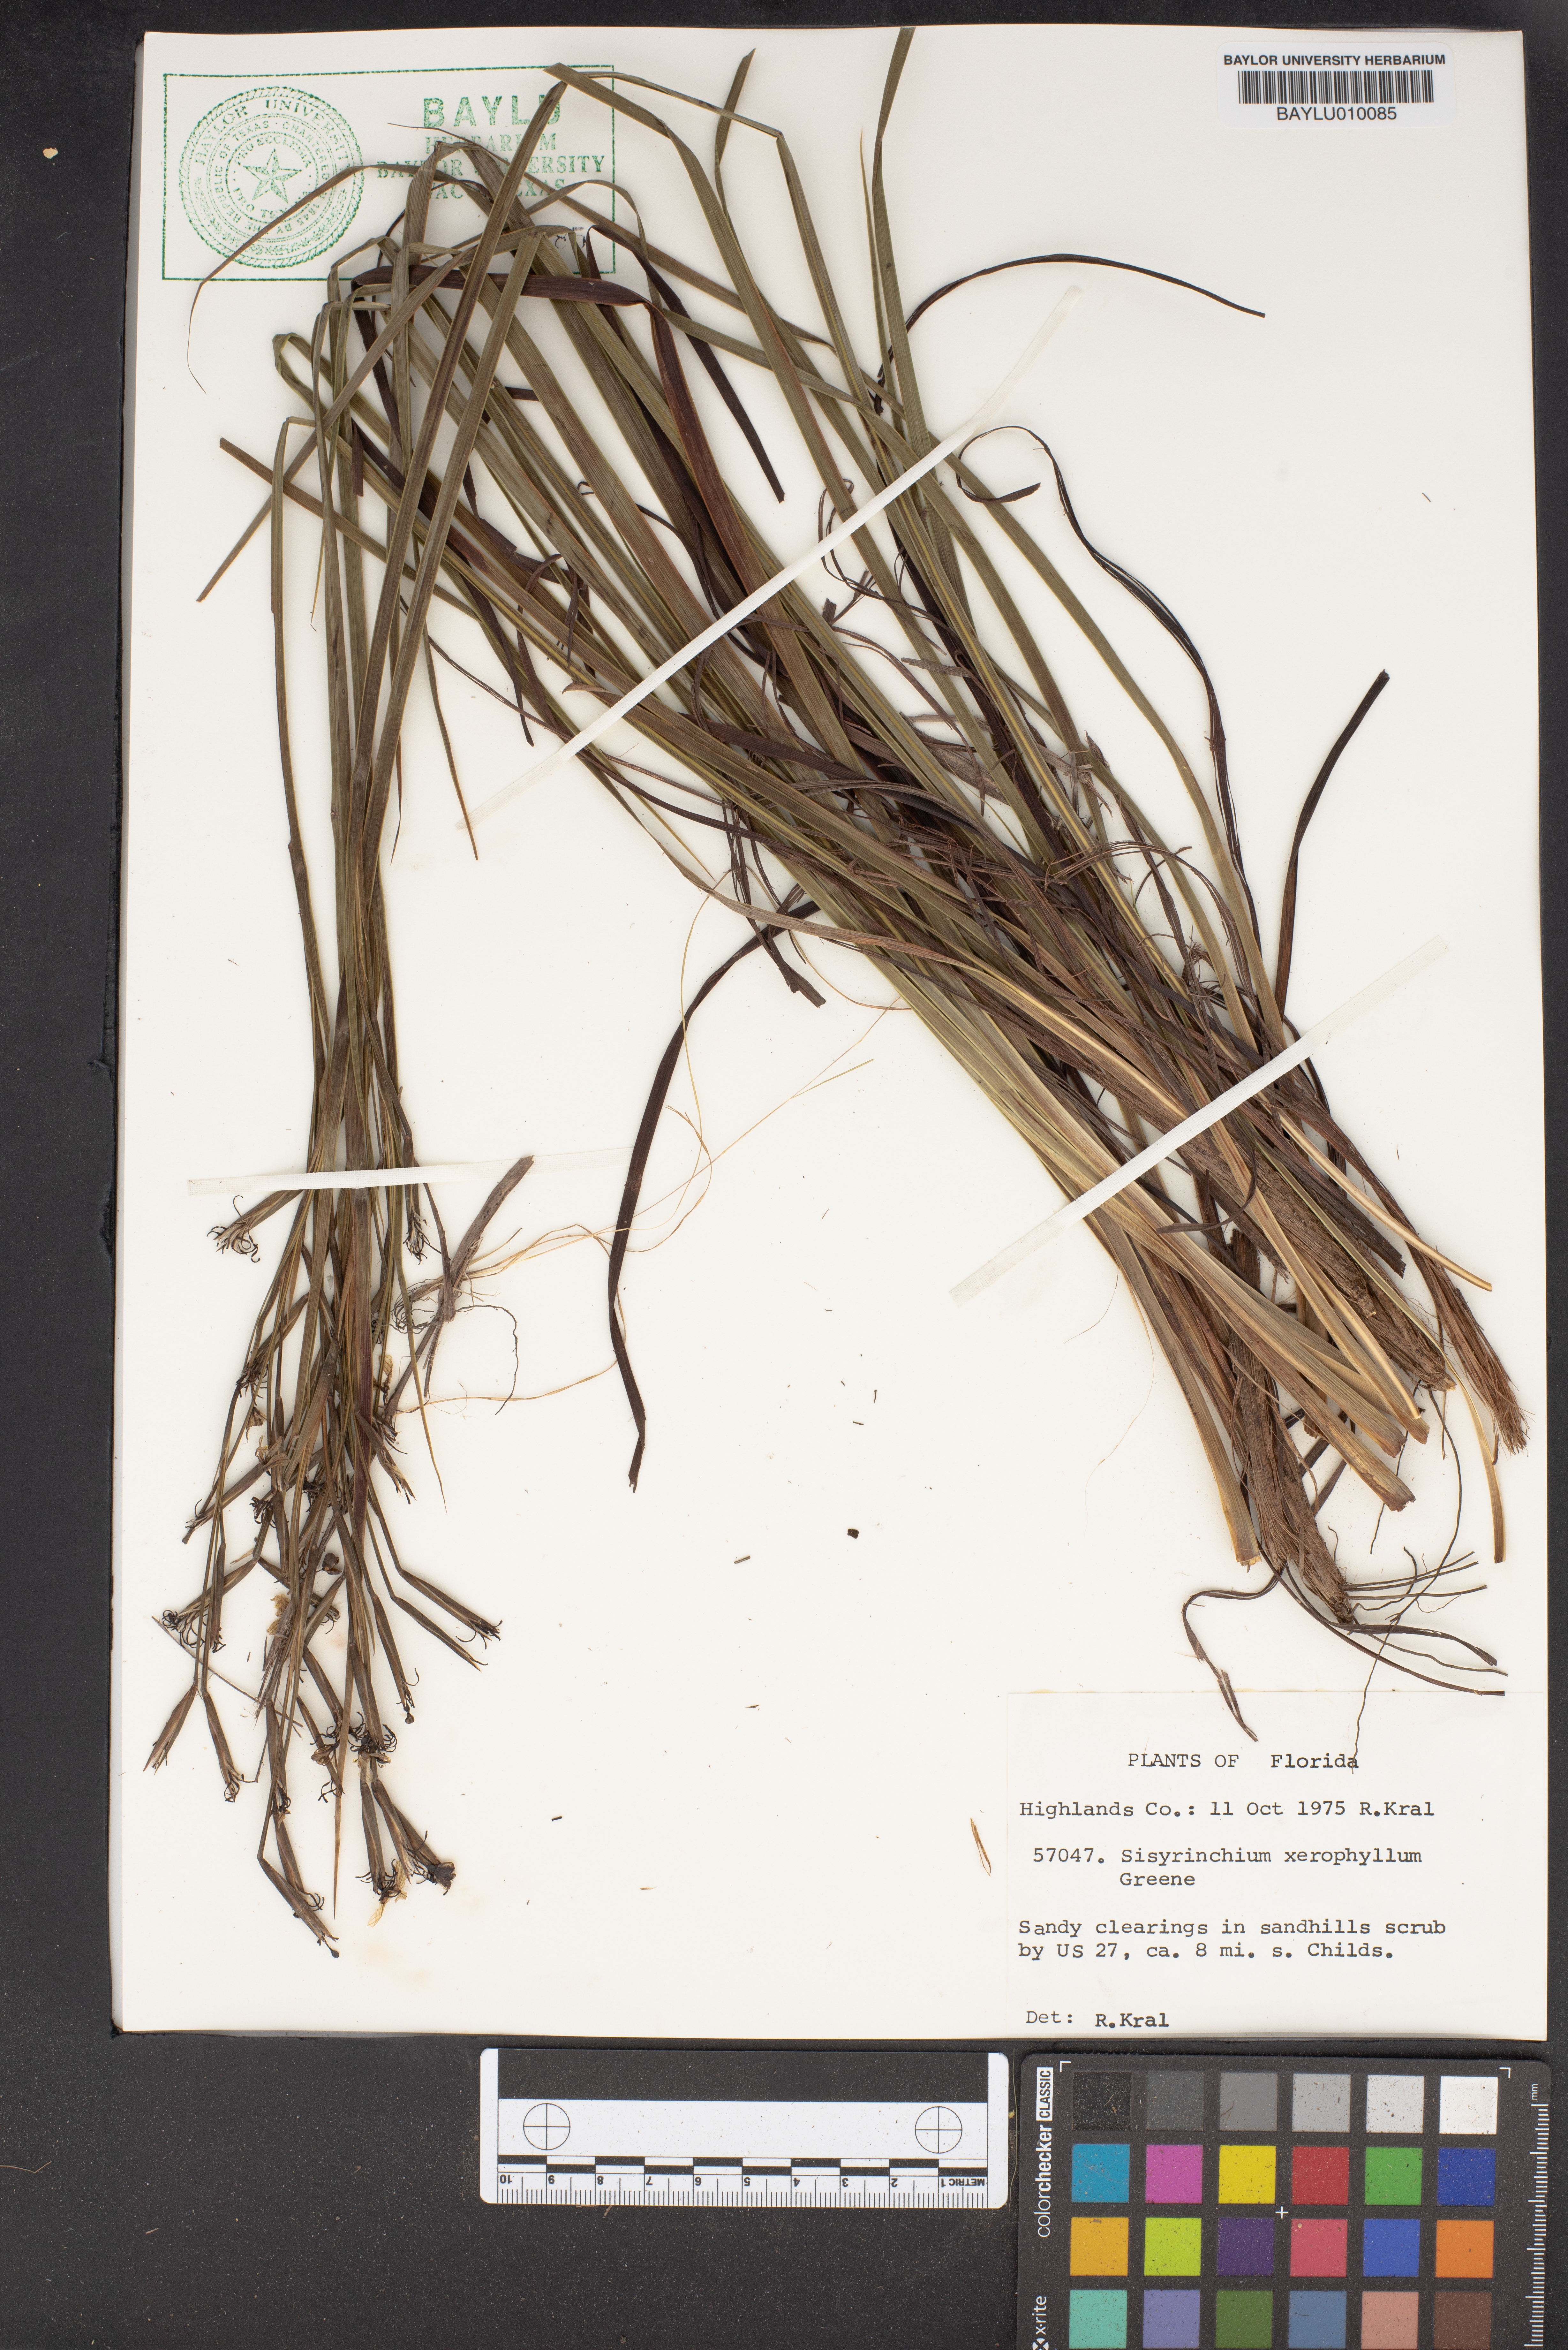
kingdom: Plantae
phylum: Tracheophyta
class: Liliopsida
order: Asparagales
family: Iridaceae
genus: Sisyrinchium
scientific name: Sisyrinchium xerophyllum
